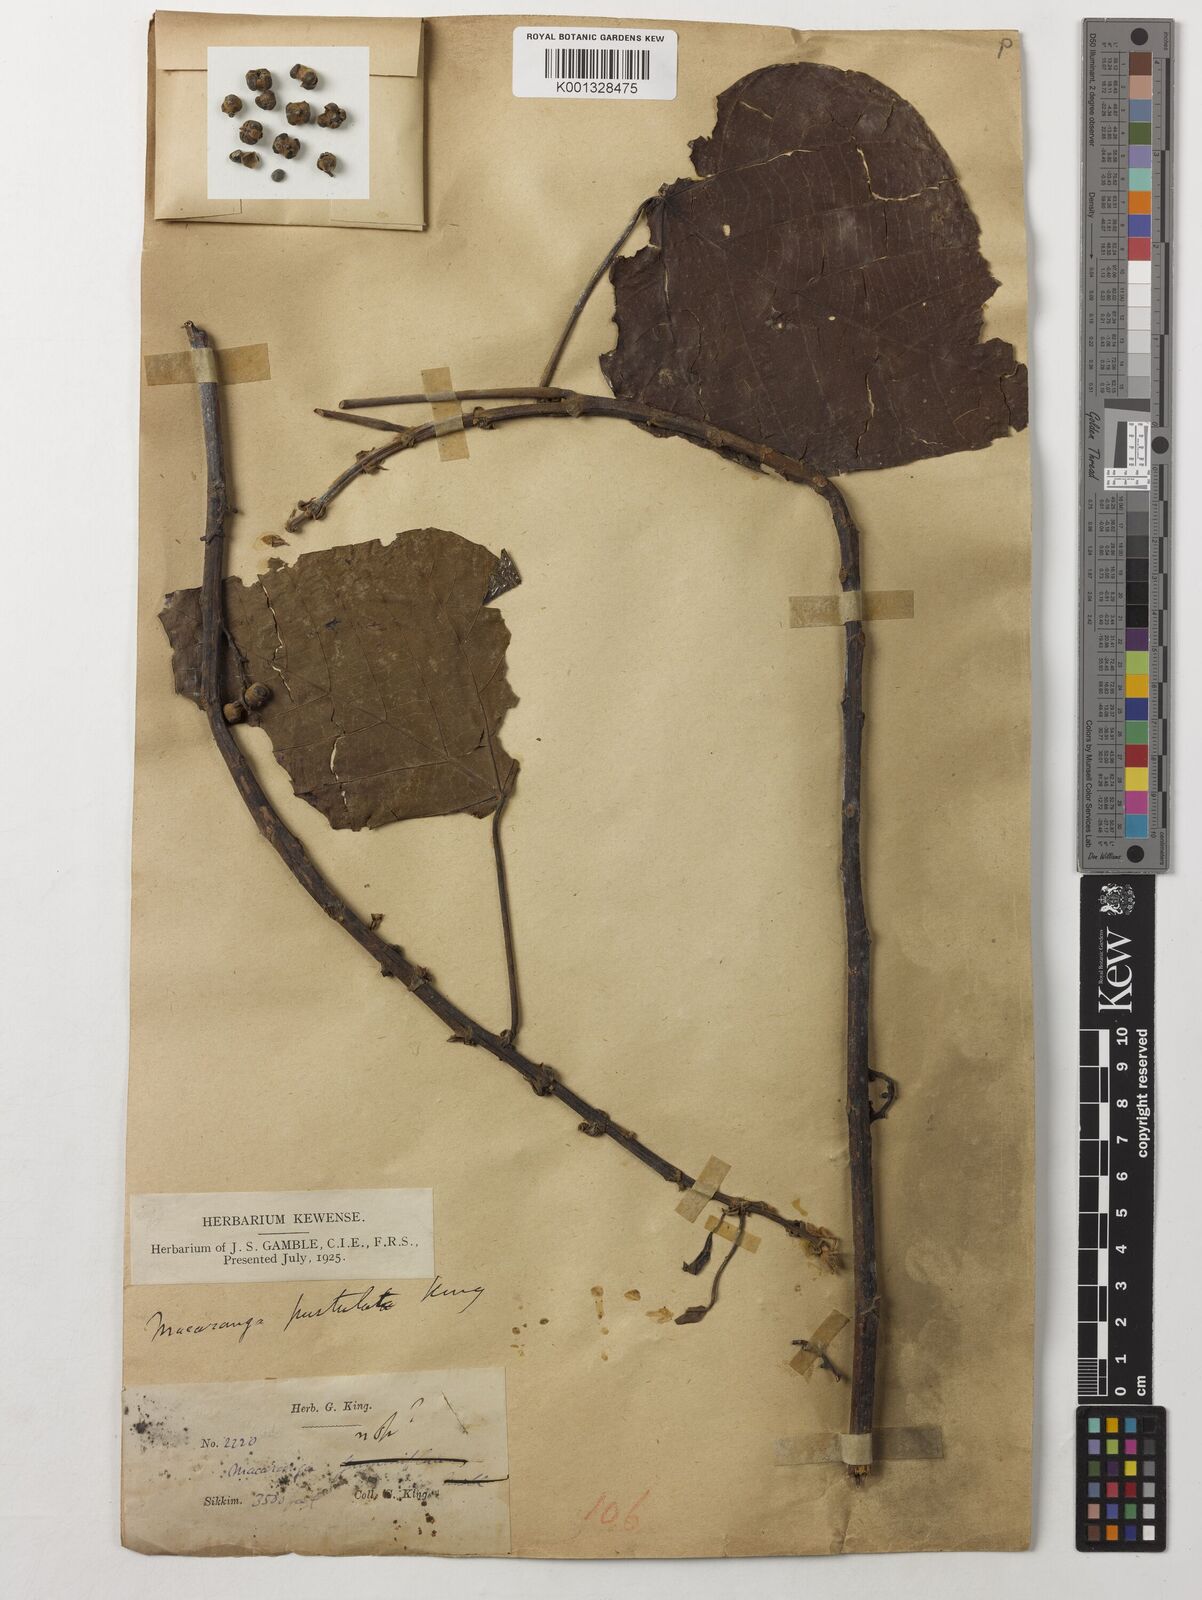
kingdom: Plantae
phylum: Tracheophyta
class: Magnoliopsida
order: Malpighiales
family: Euphorbiaceae
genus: Macaranga
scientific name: Macaranga denticulata
